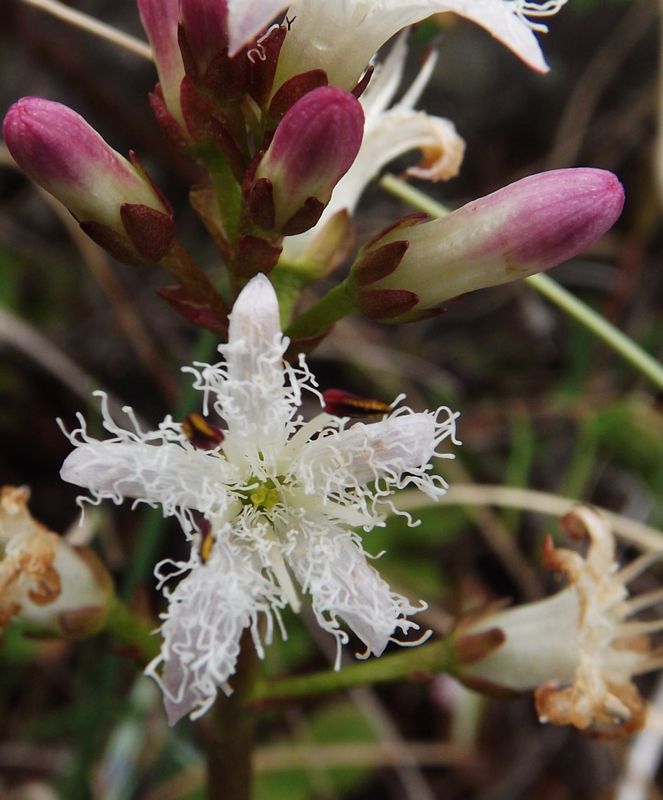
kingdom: Plantae
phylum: Tracheophyta
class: Magnoliopsida
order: Asterales
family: Menyanthaceae
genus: Menyanthes
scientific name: Menyanthes trifoliata
